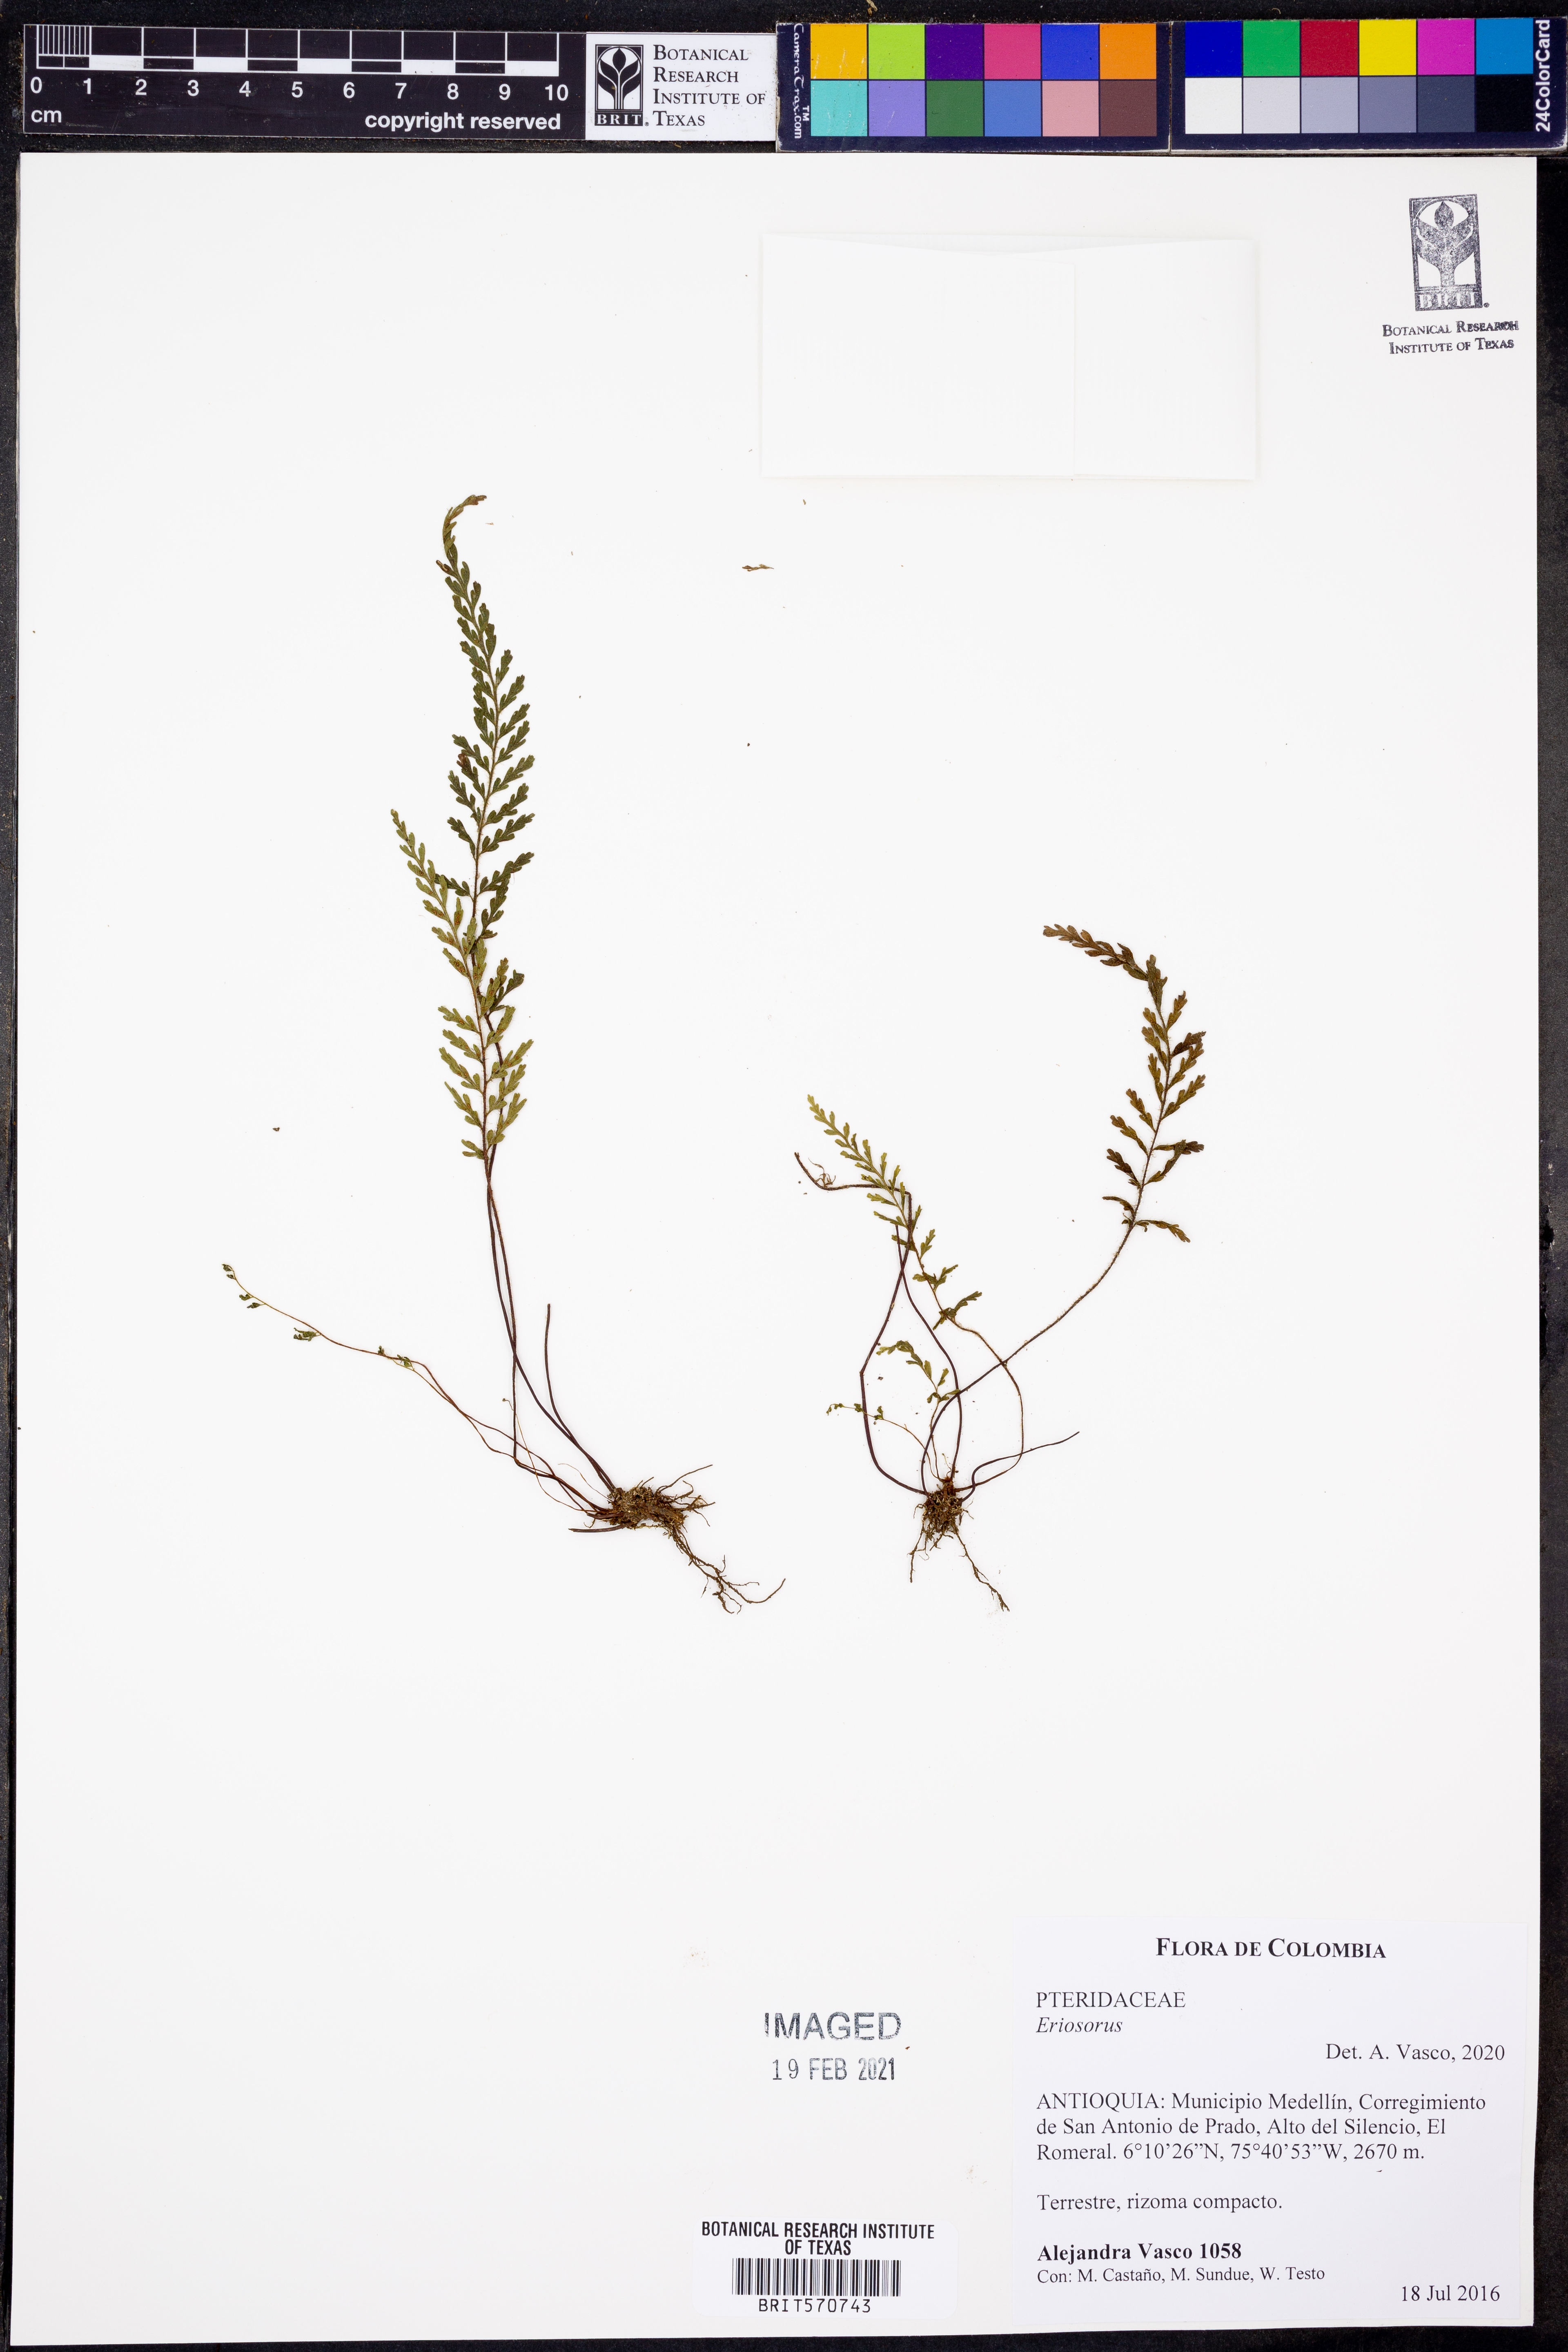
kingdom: Plantae
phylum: Tracheophyta
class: Polypodiopsida
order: Polypodiales
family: Pteridaceae
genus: Jamesonia
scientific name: Jamesonia
